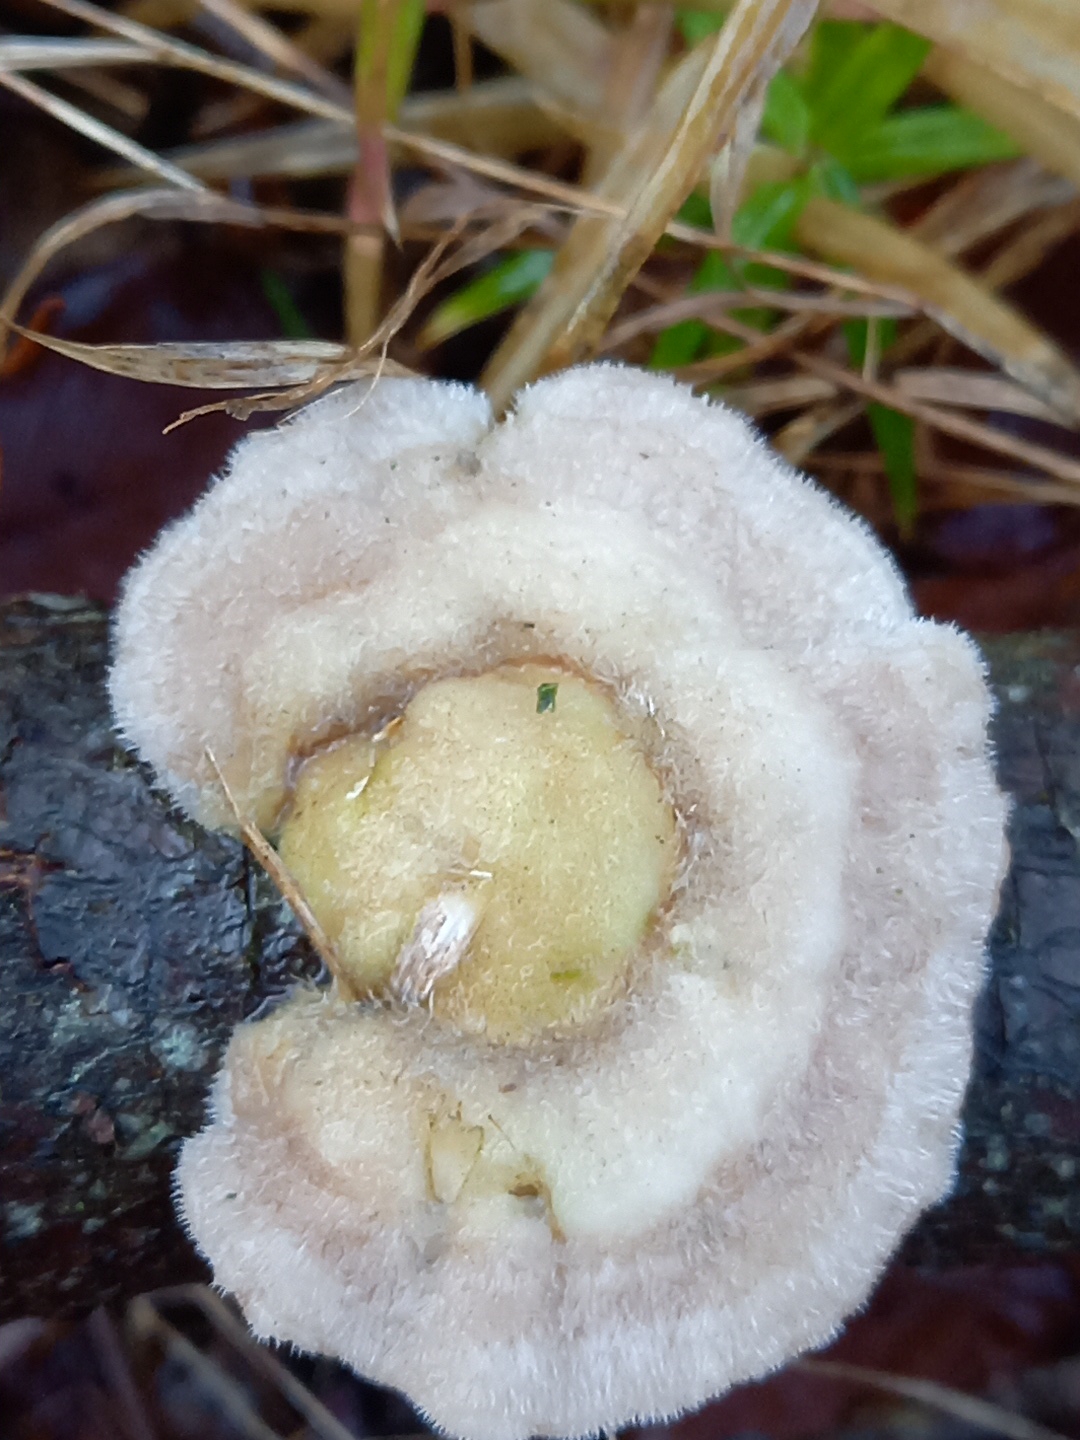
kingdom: Fungi
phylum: Basidiomycota
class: Agaricomycetes
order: Polyporales
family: Polyporaceae
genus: Trametes
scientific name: Trametes hirsuta
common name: håret læderporesvamp
